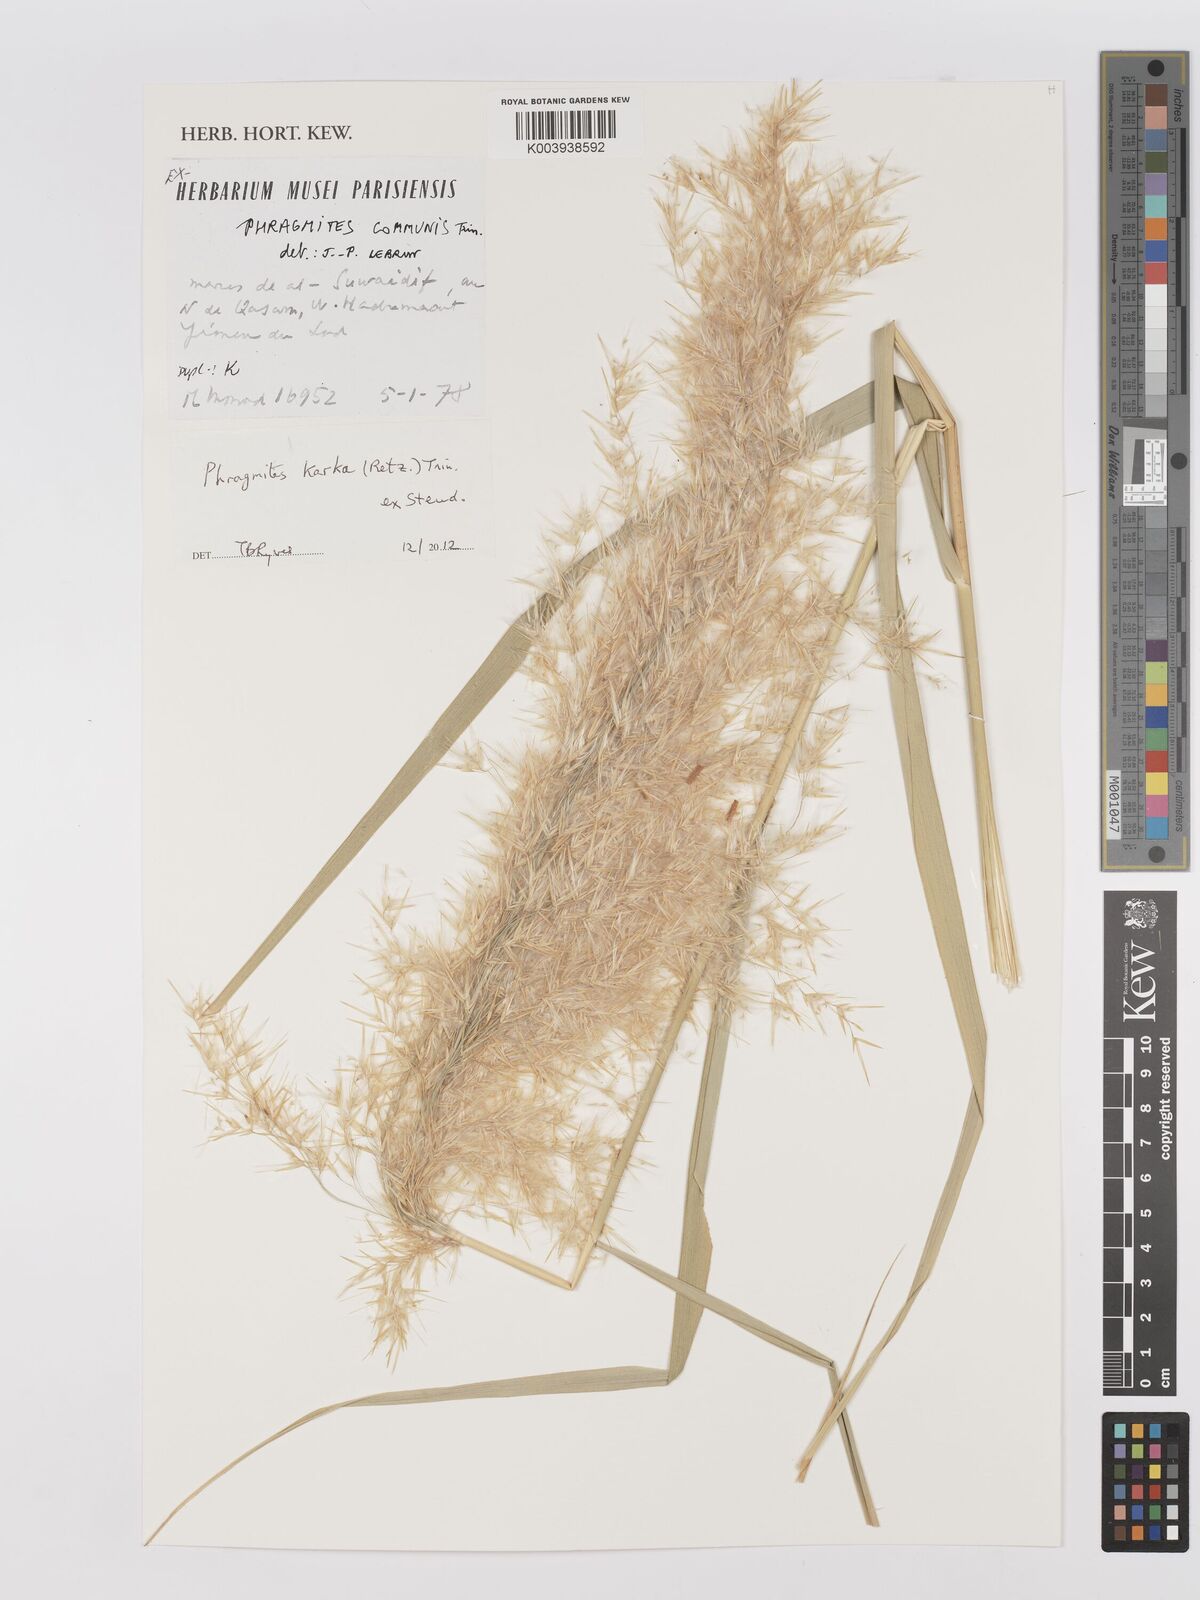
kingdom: Plantae
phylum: Tracheophyta
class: Liliopsida
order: Poales
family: Poaceae
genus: Phragmites
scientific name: Phragmites karka
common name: Tropical reed
